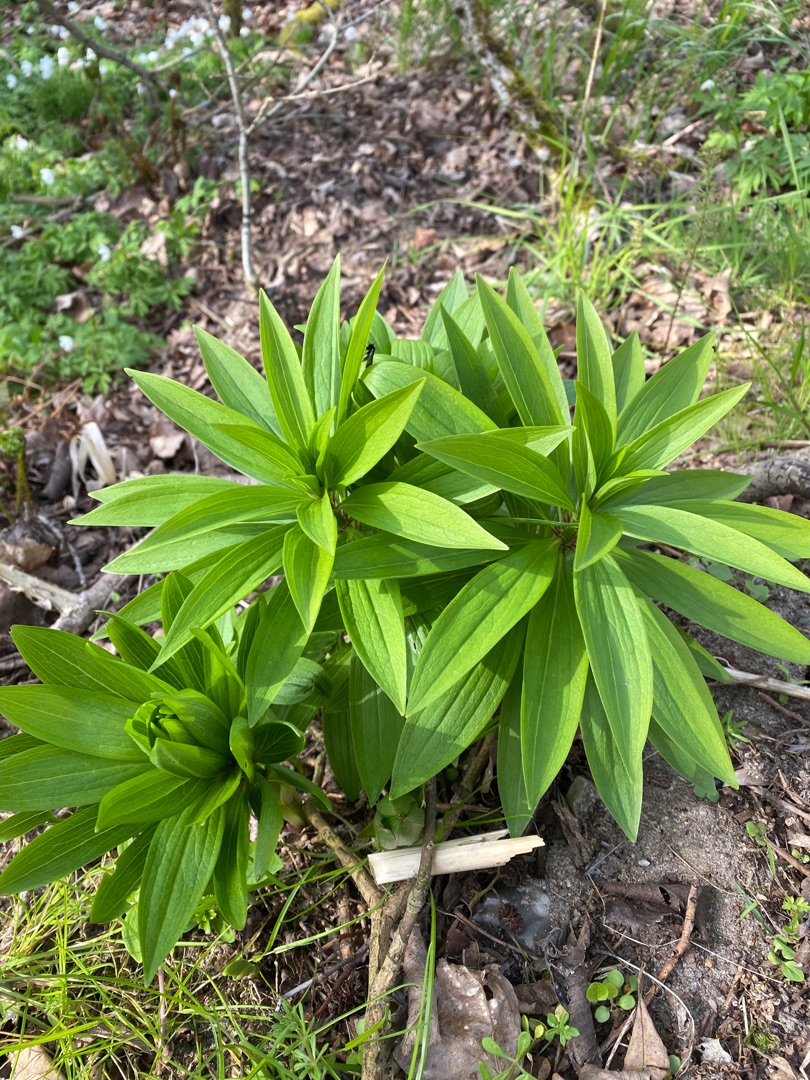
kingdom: Plantae
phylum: Tracheophyta
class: Liliopsida
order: Liliales
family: Liliaceae
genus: Lilium
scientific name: Lilium martagon
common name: Krans-lilje
